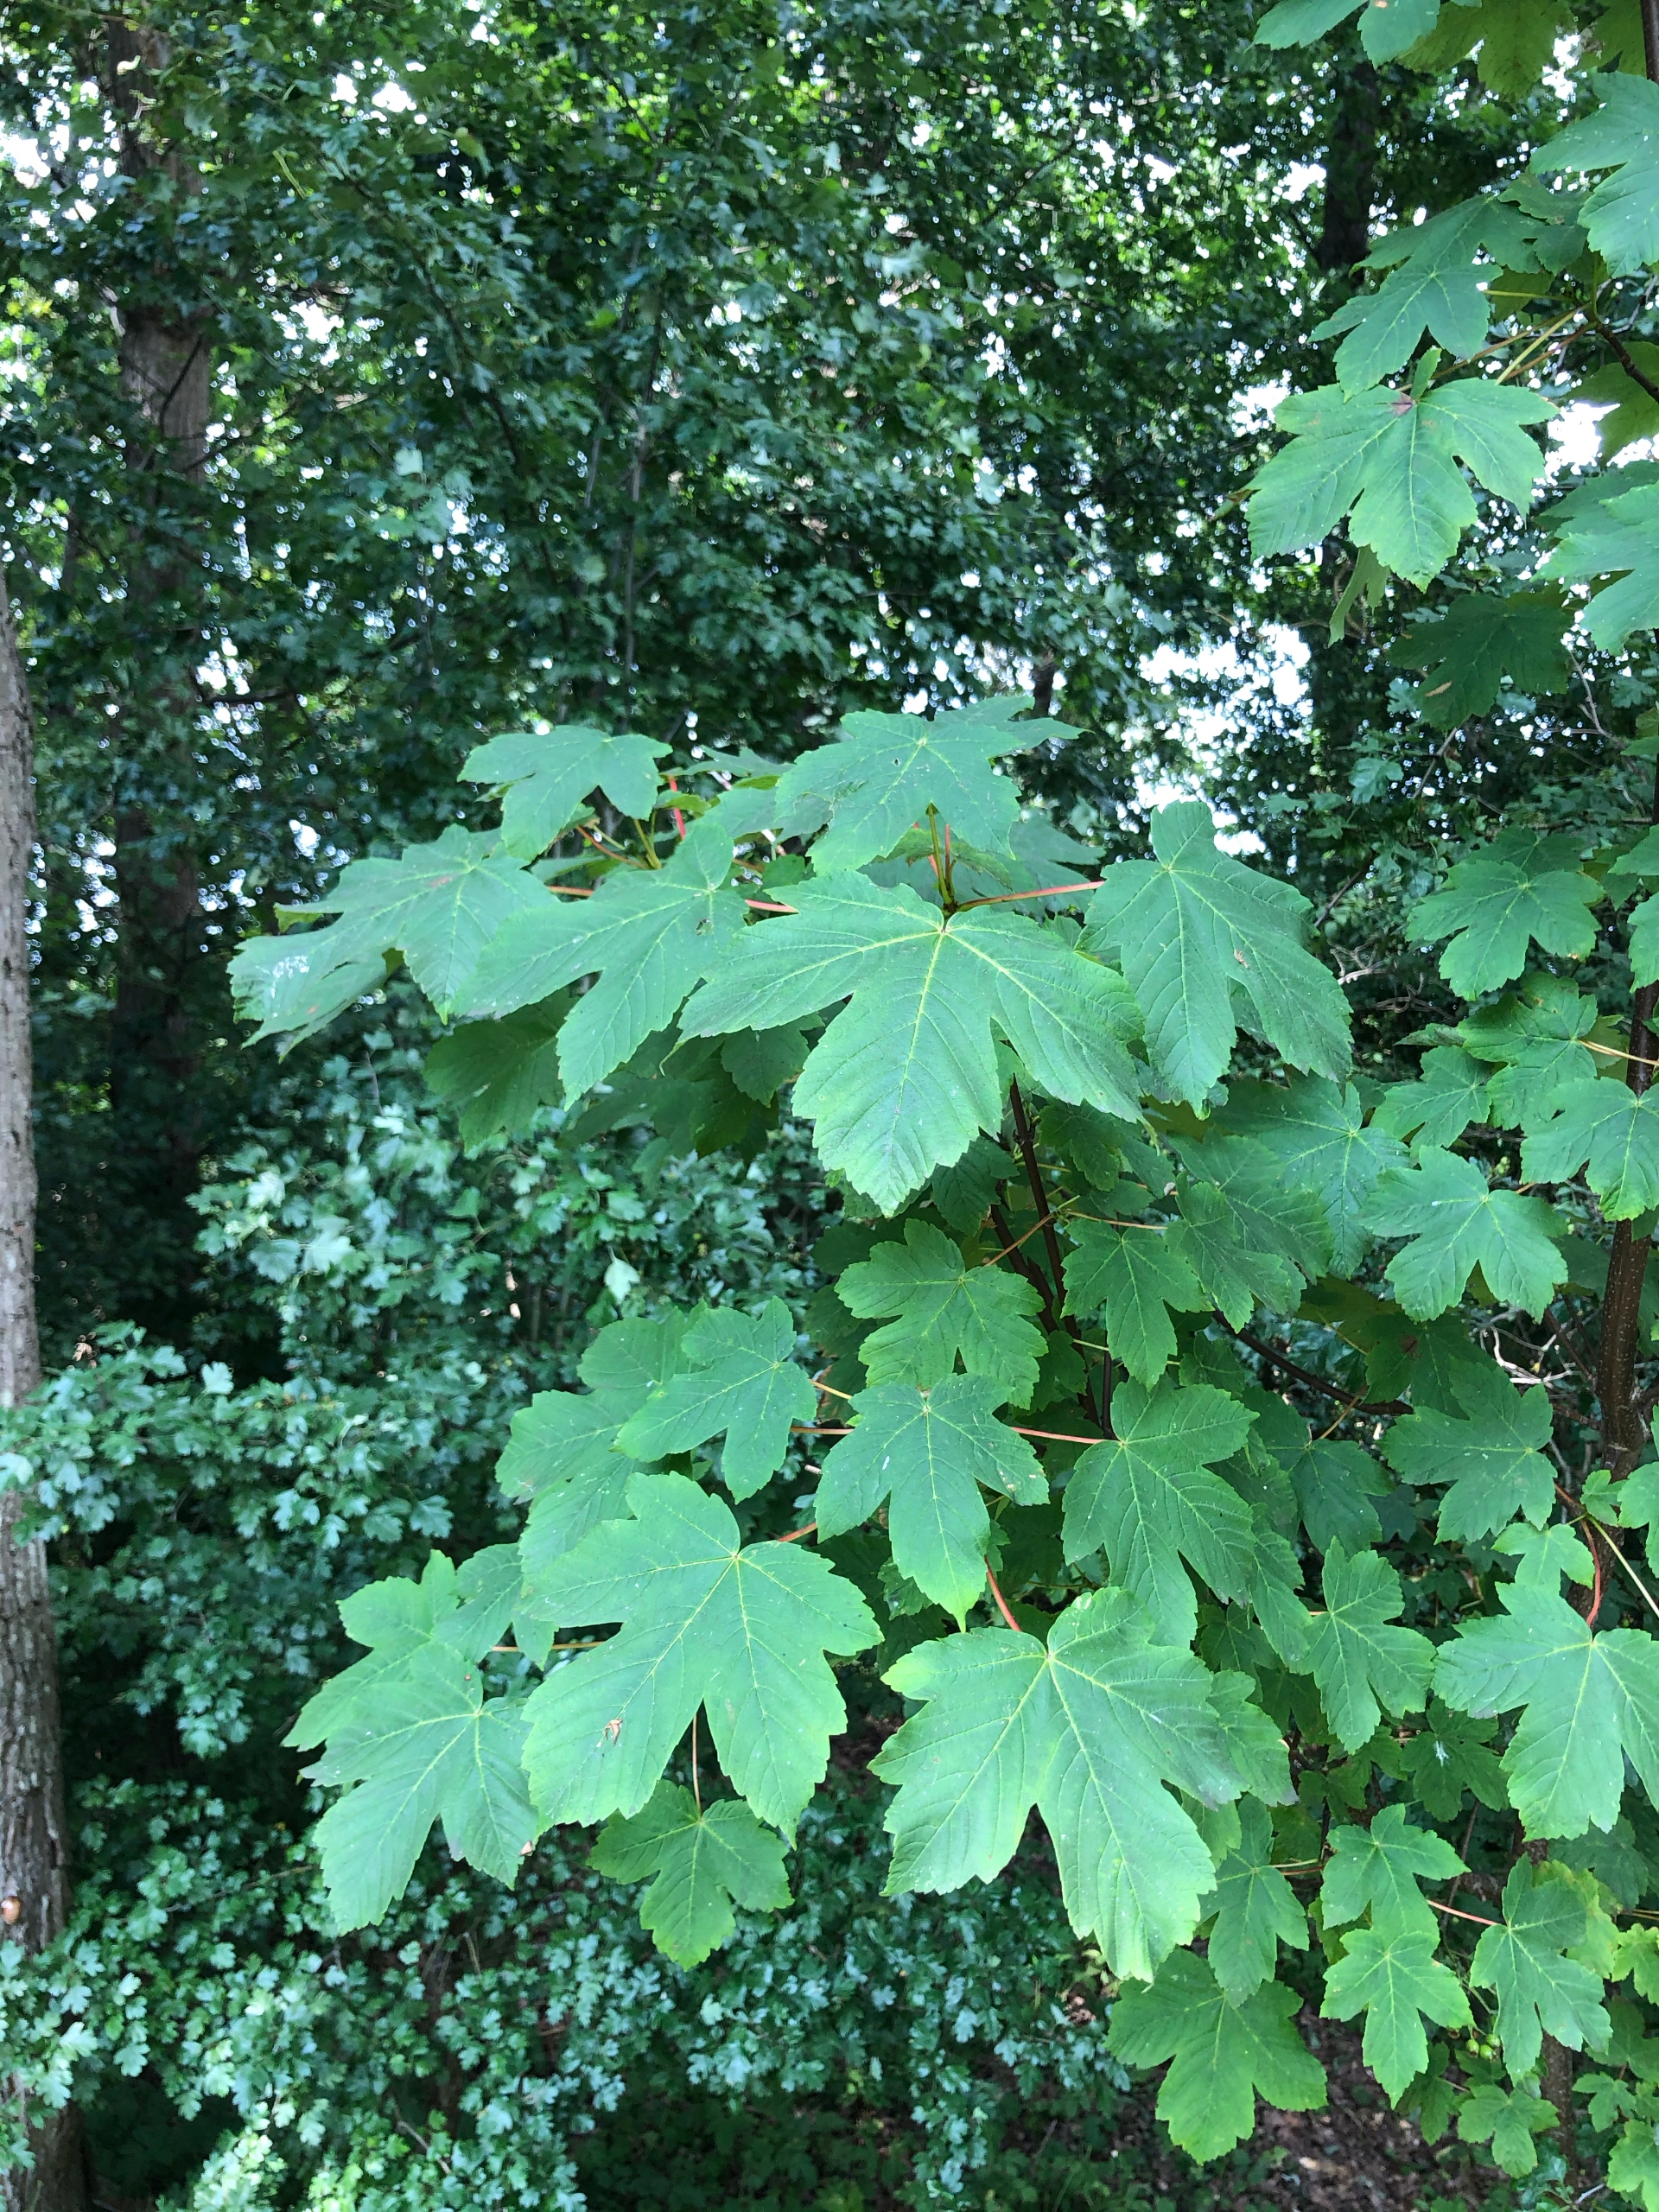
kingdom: Plantae
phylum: Tracheophyta
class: Magnoliopsida
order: Sapindales
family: Sapindaceae
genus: Acer
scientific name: Acer pseudoplatanus
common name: Ahorn
